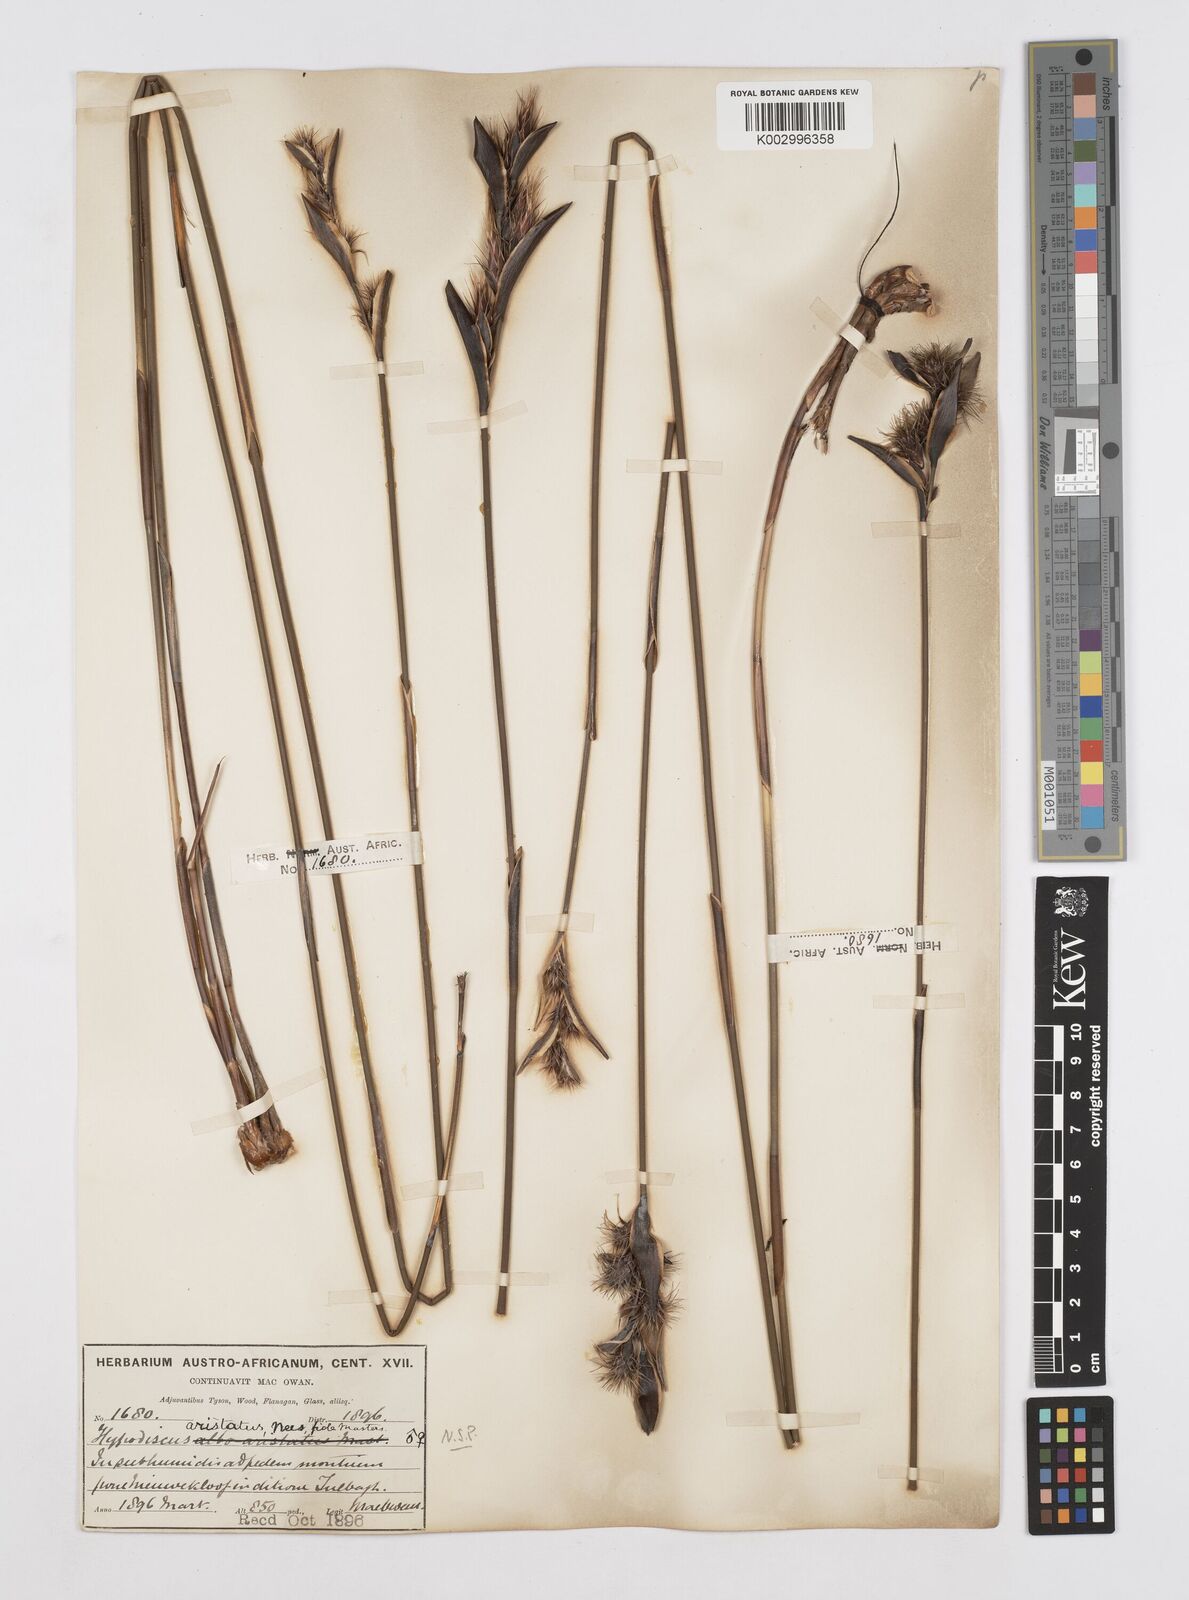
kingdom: Plantae
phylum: Tracheophyta
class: Liliopsida
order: Poales
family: Restionaceae
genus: Hypodiscus
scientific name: Hypodiscus aristatus
